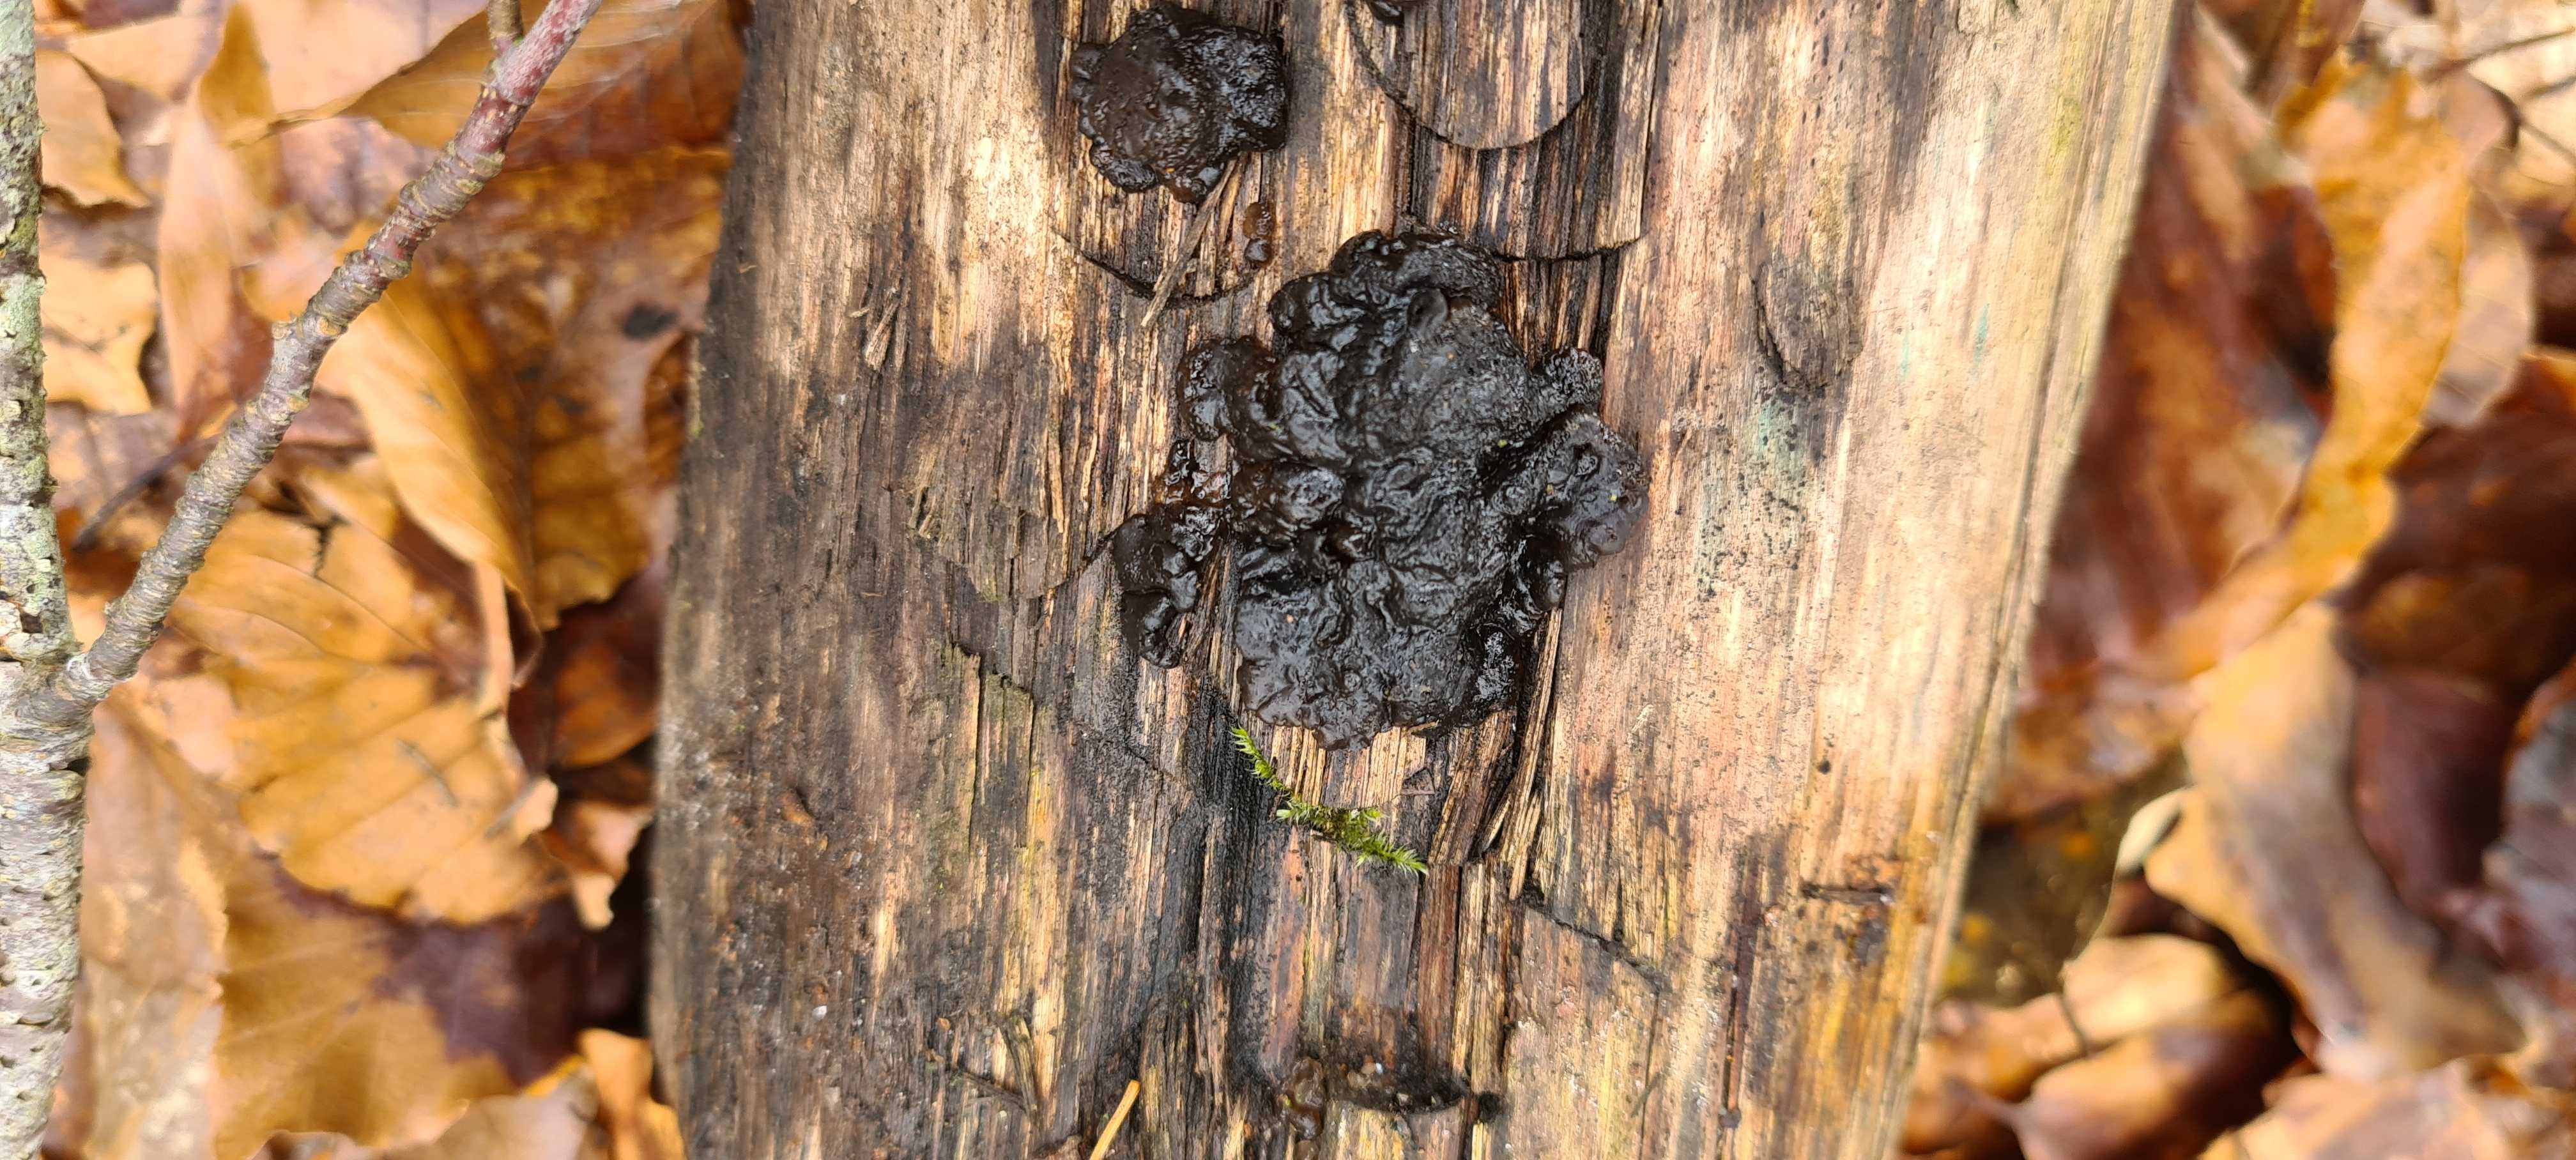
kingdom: Fungi
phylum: Basidiomycota
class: Agaricomycetes
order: Auriculariales
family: Auriculariaceae
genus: Exidia
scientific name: Exidia nigricans
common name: almindelig bævretop
